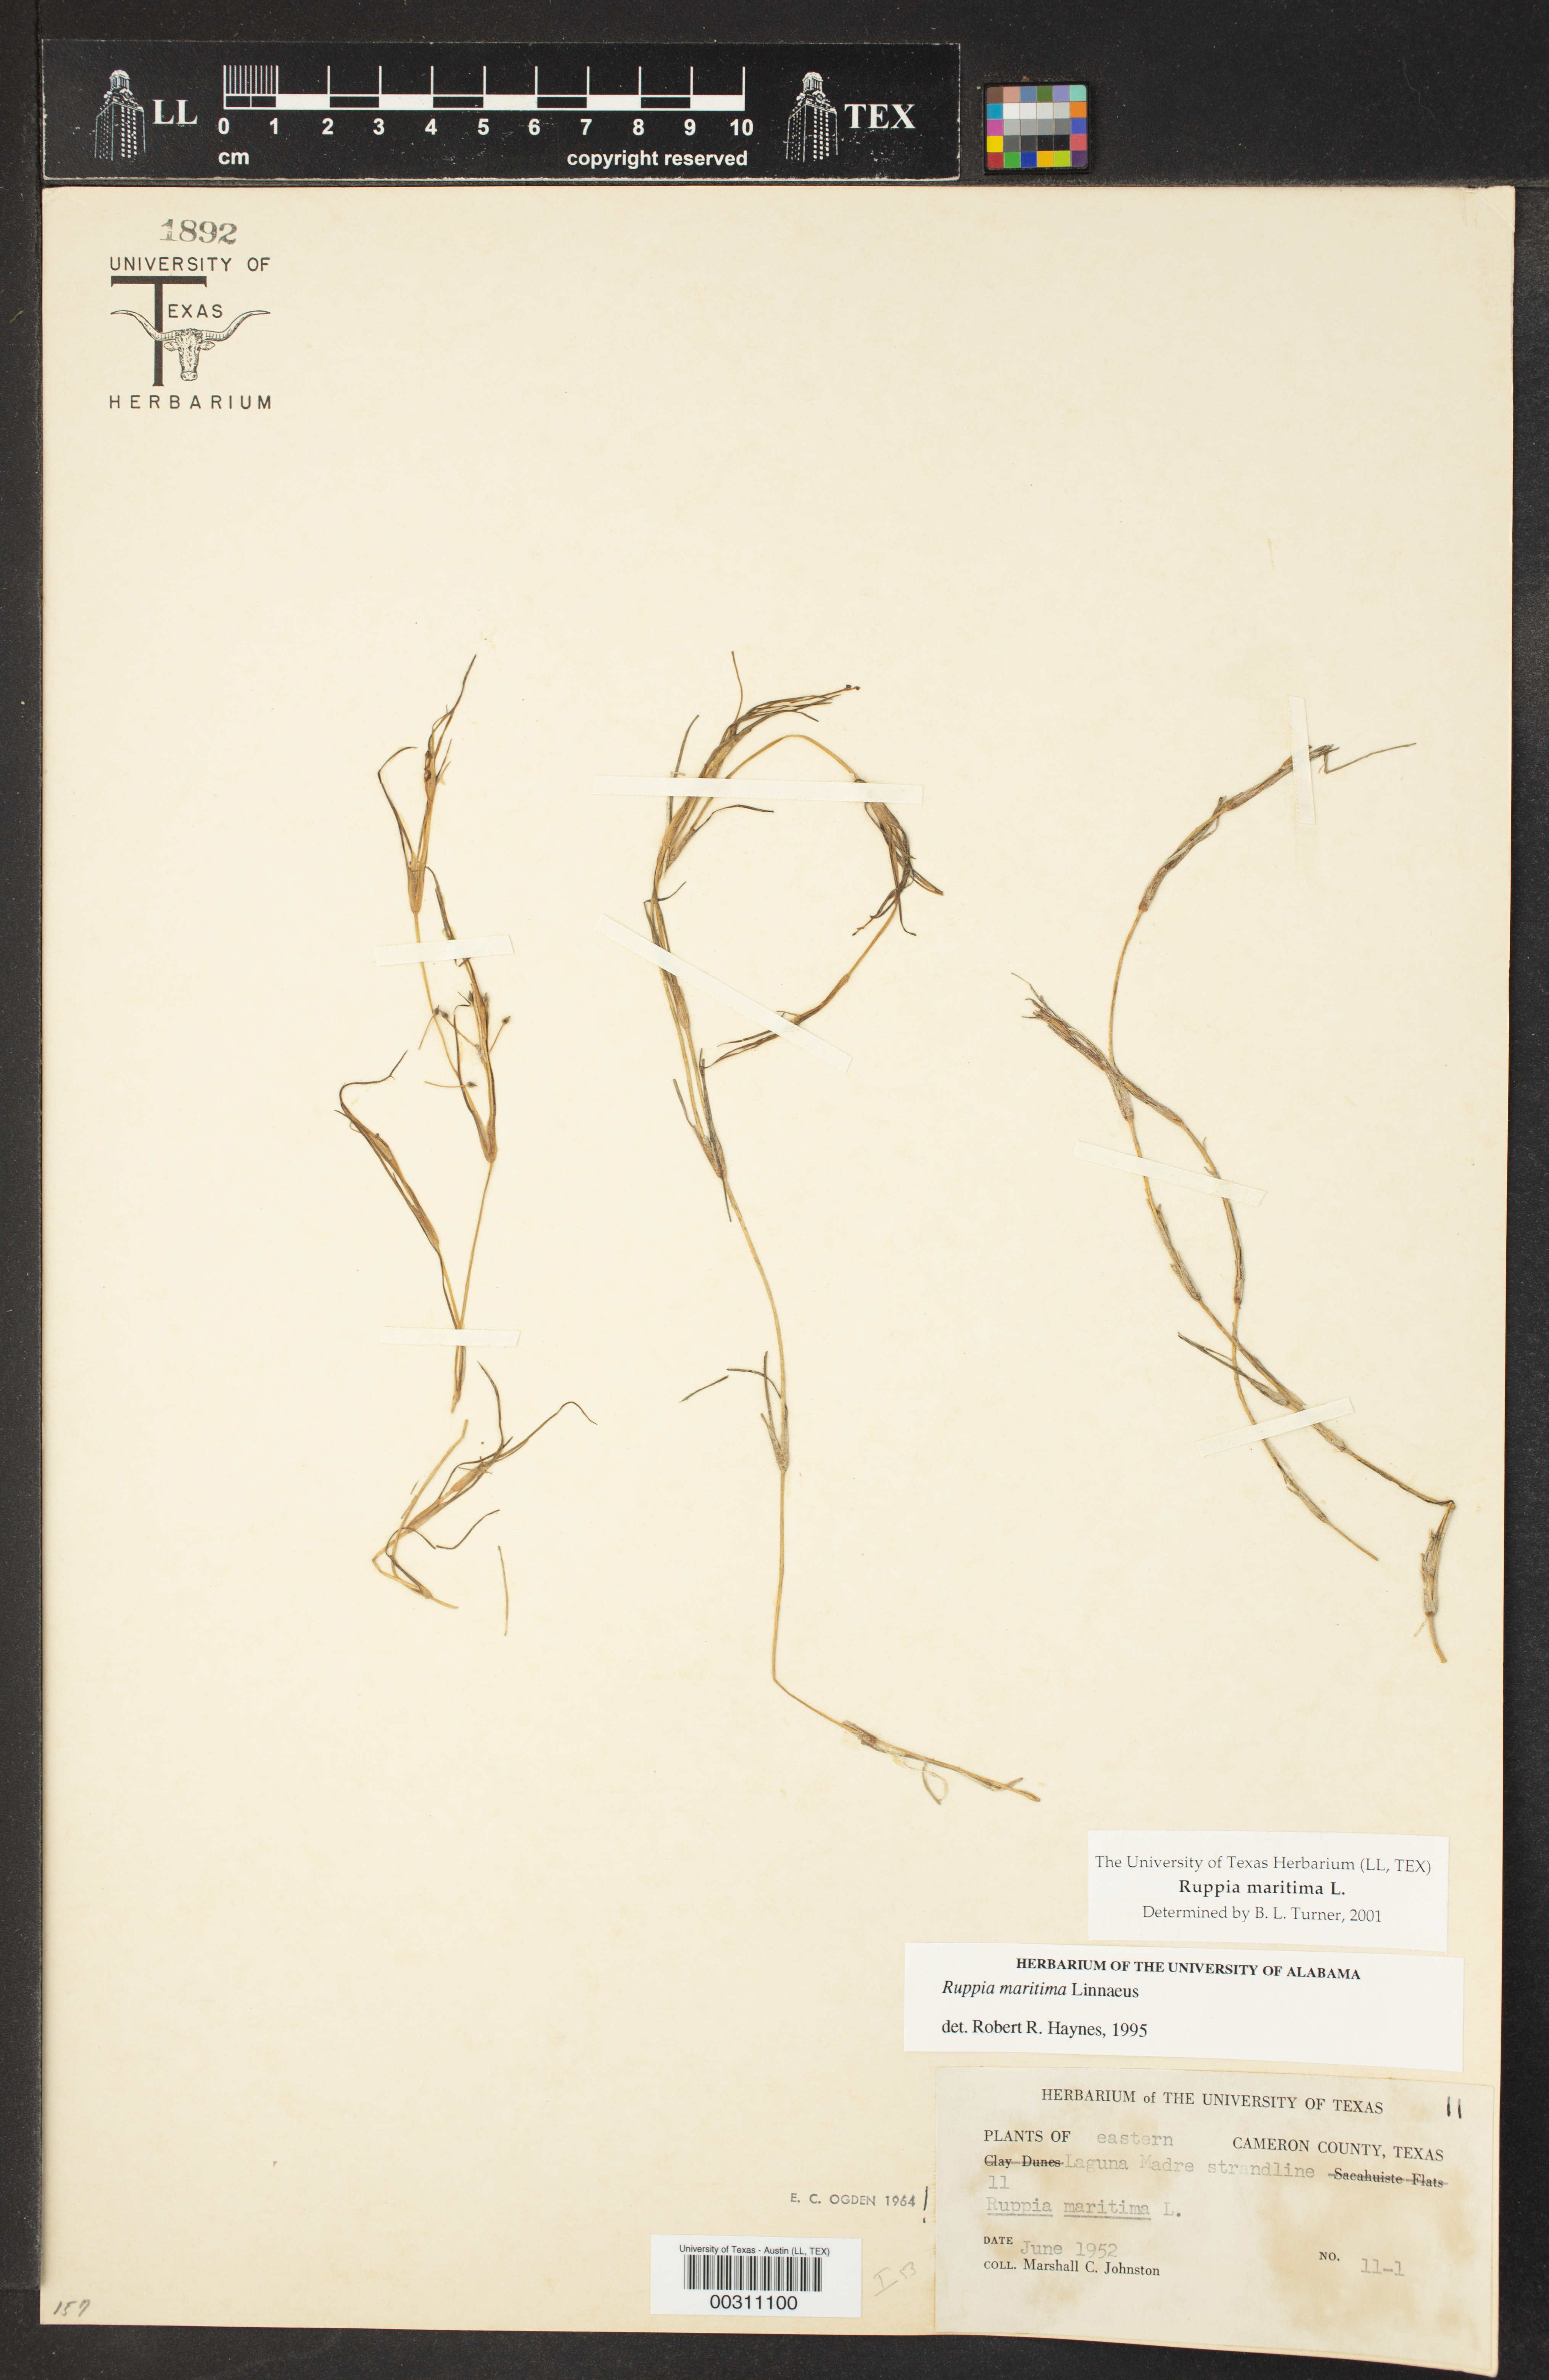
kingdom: Plantae
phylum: Tracheophyta
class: Liliopsida
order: Alismatales
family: Ruppiaceae
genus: Ruppia
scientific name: Ruppia maritima
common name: Beaked tasselweed
